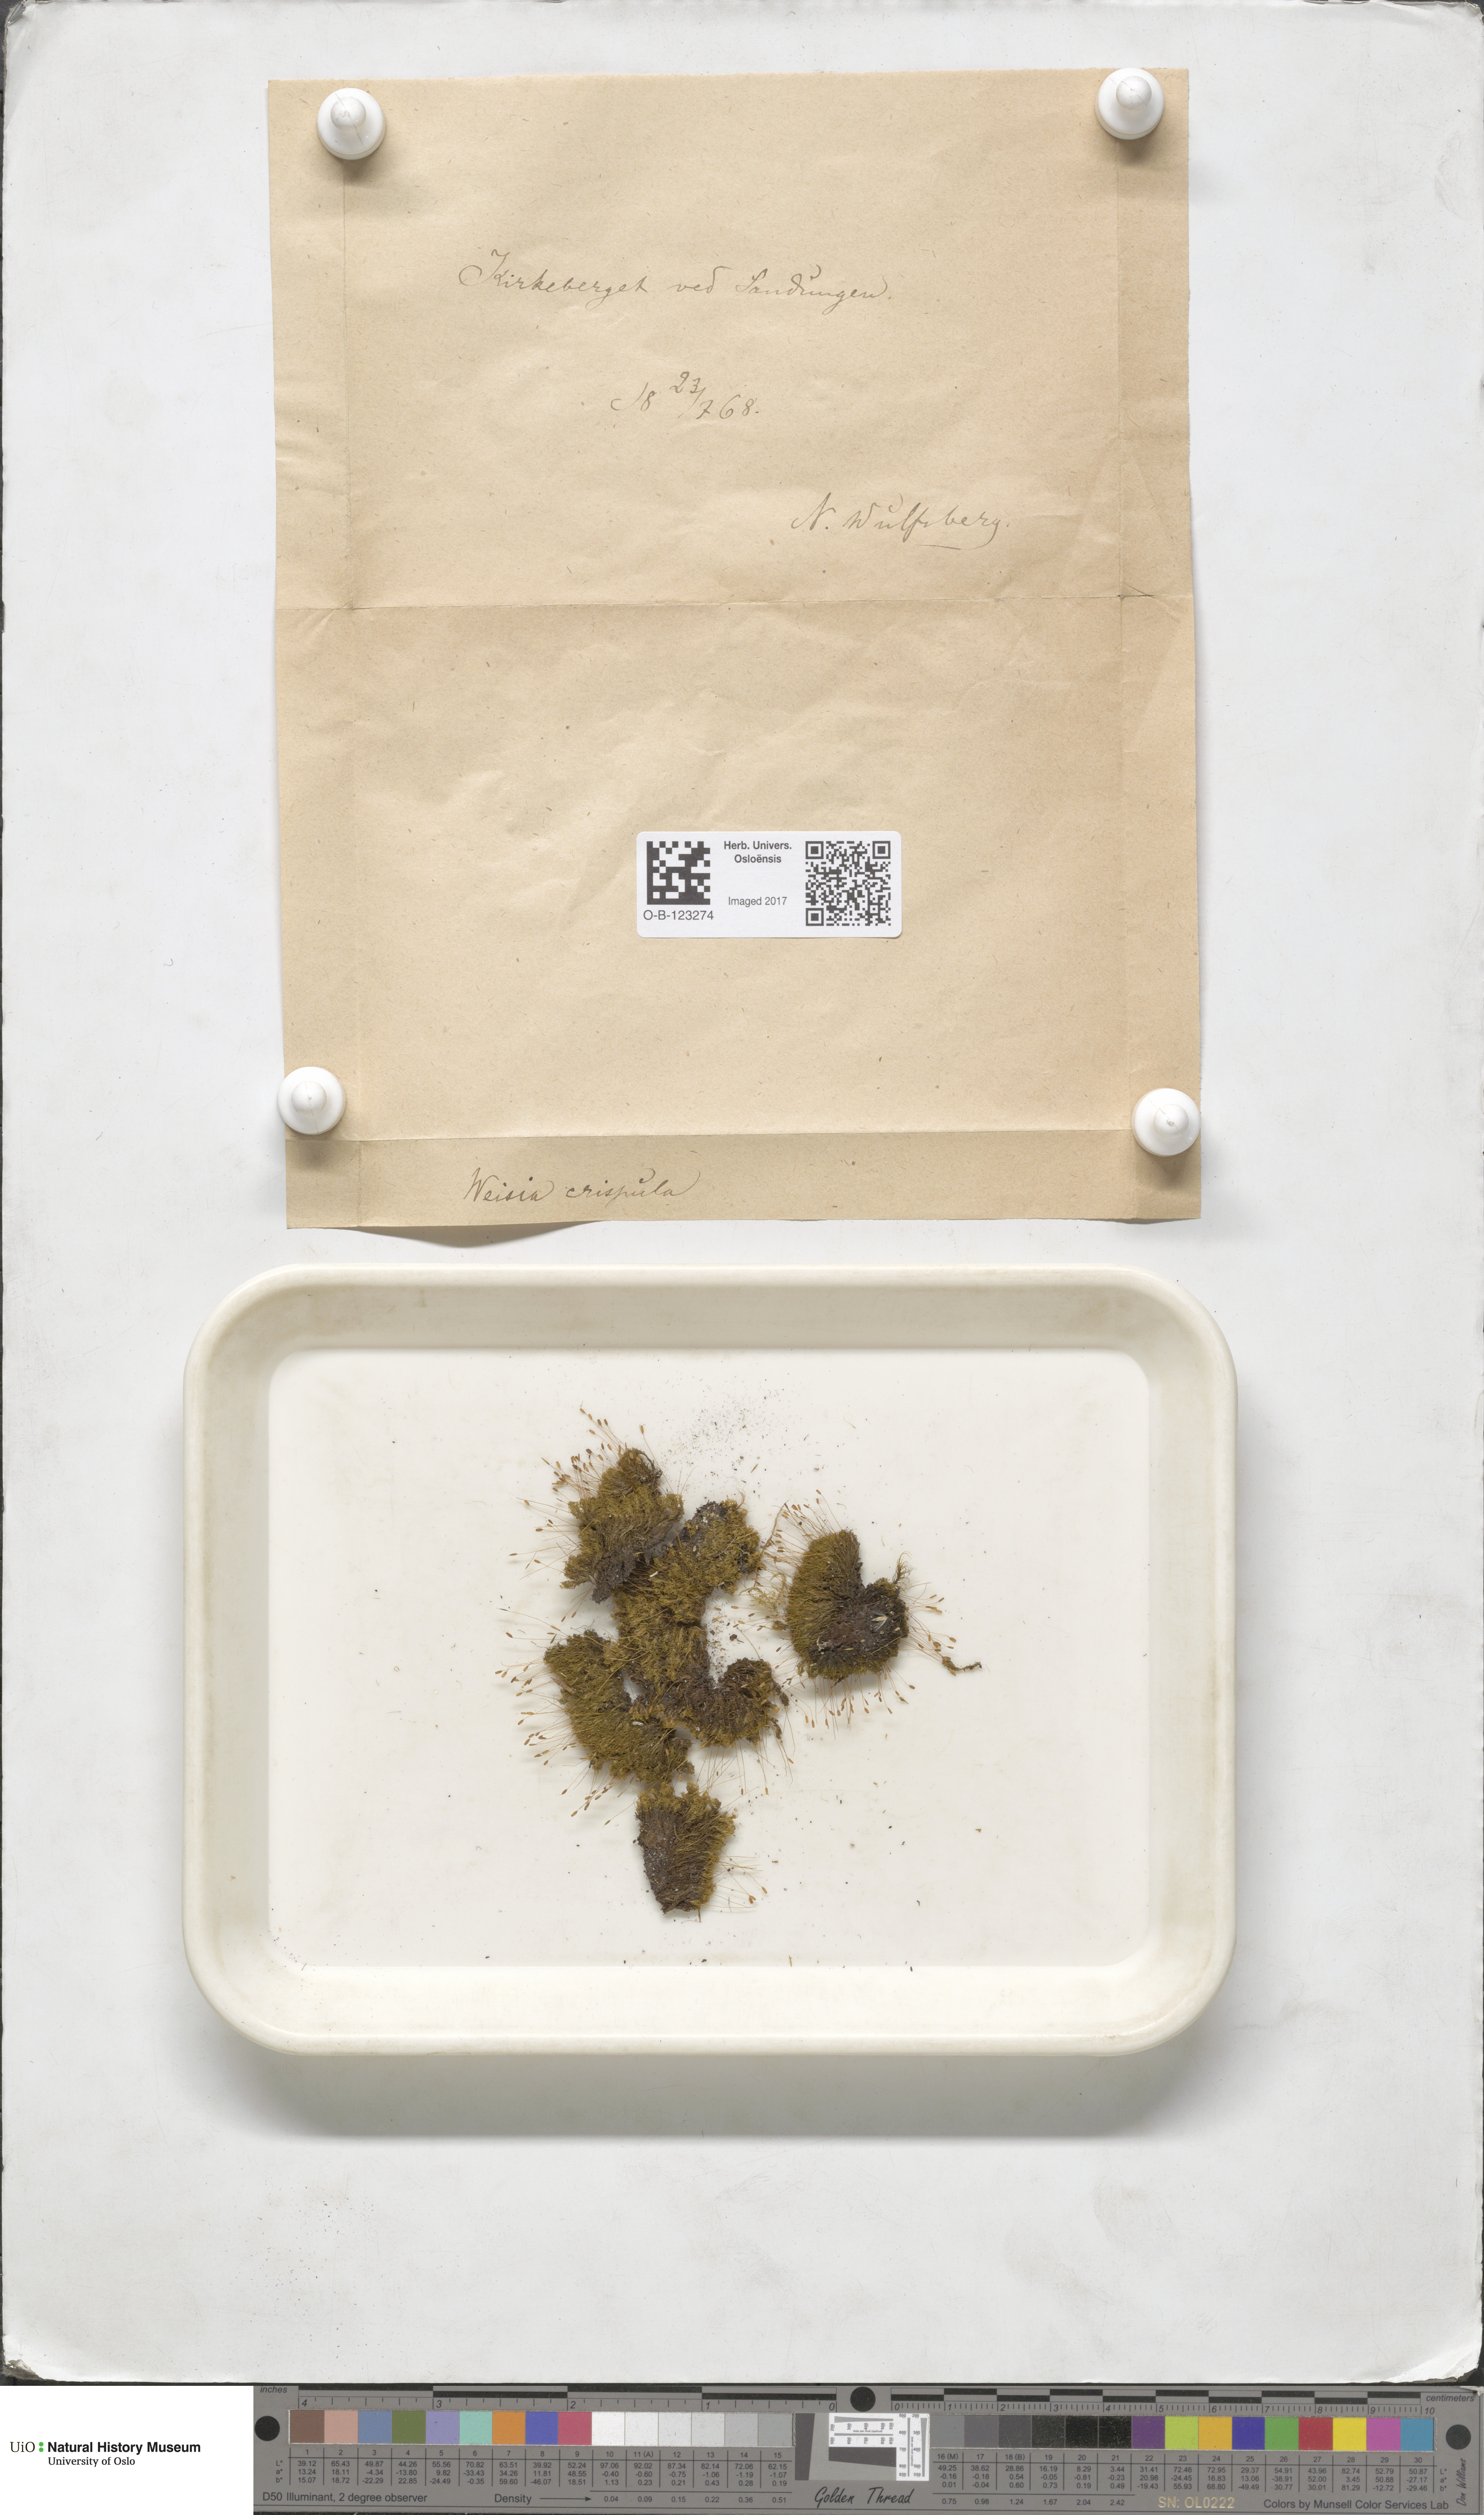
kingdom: Plantae
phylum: Bryophyta
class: Bryopsida
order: Scouleriales
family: Hymenolomataceae
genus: Hymenoloma
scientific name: Hymenoloma crispulum
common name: Mountain pincushion
